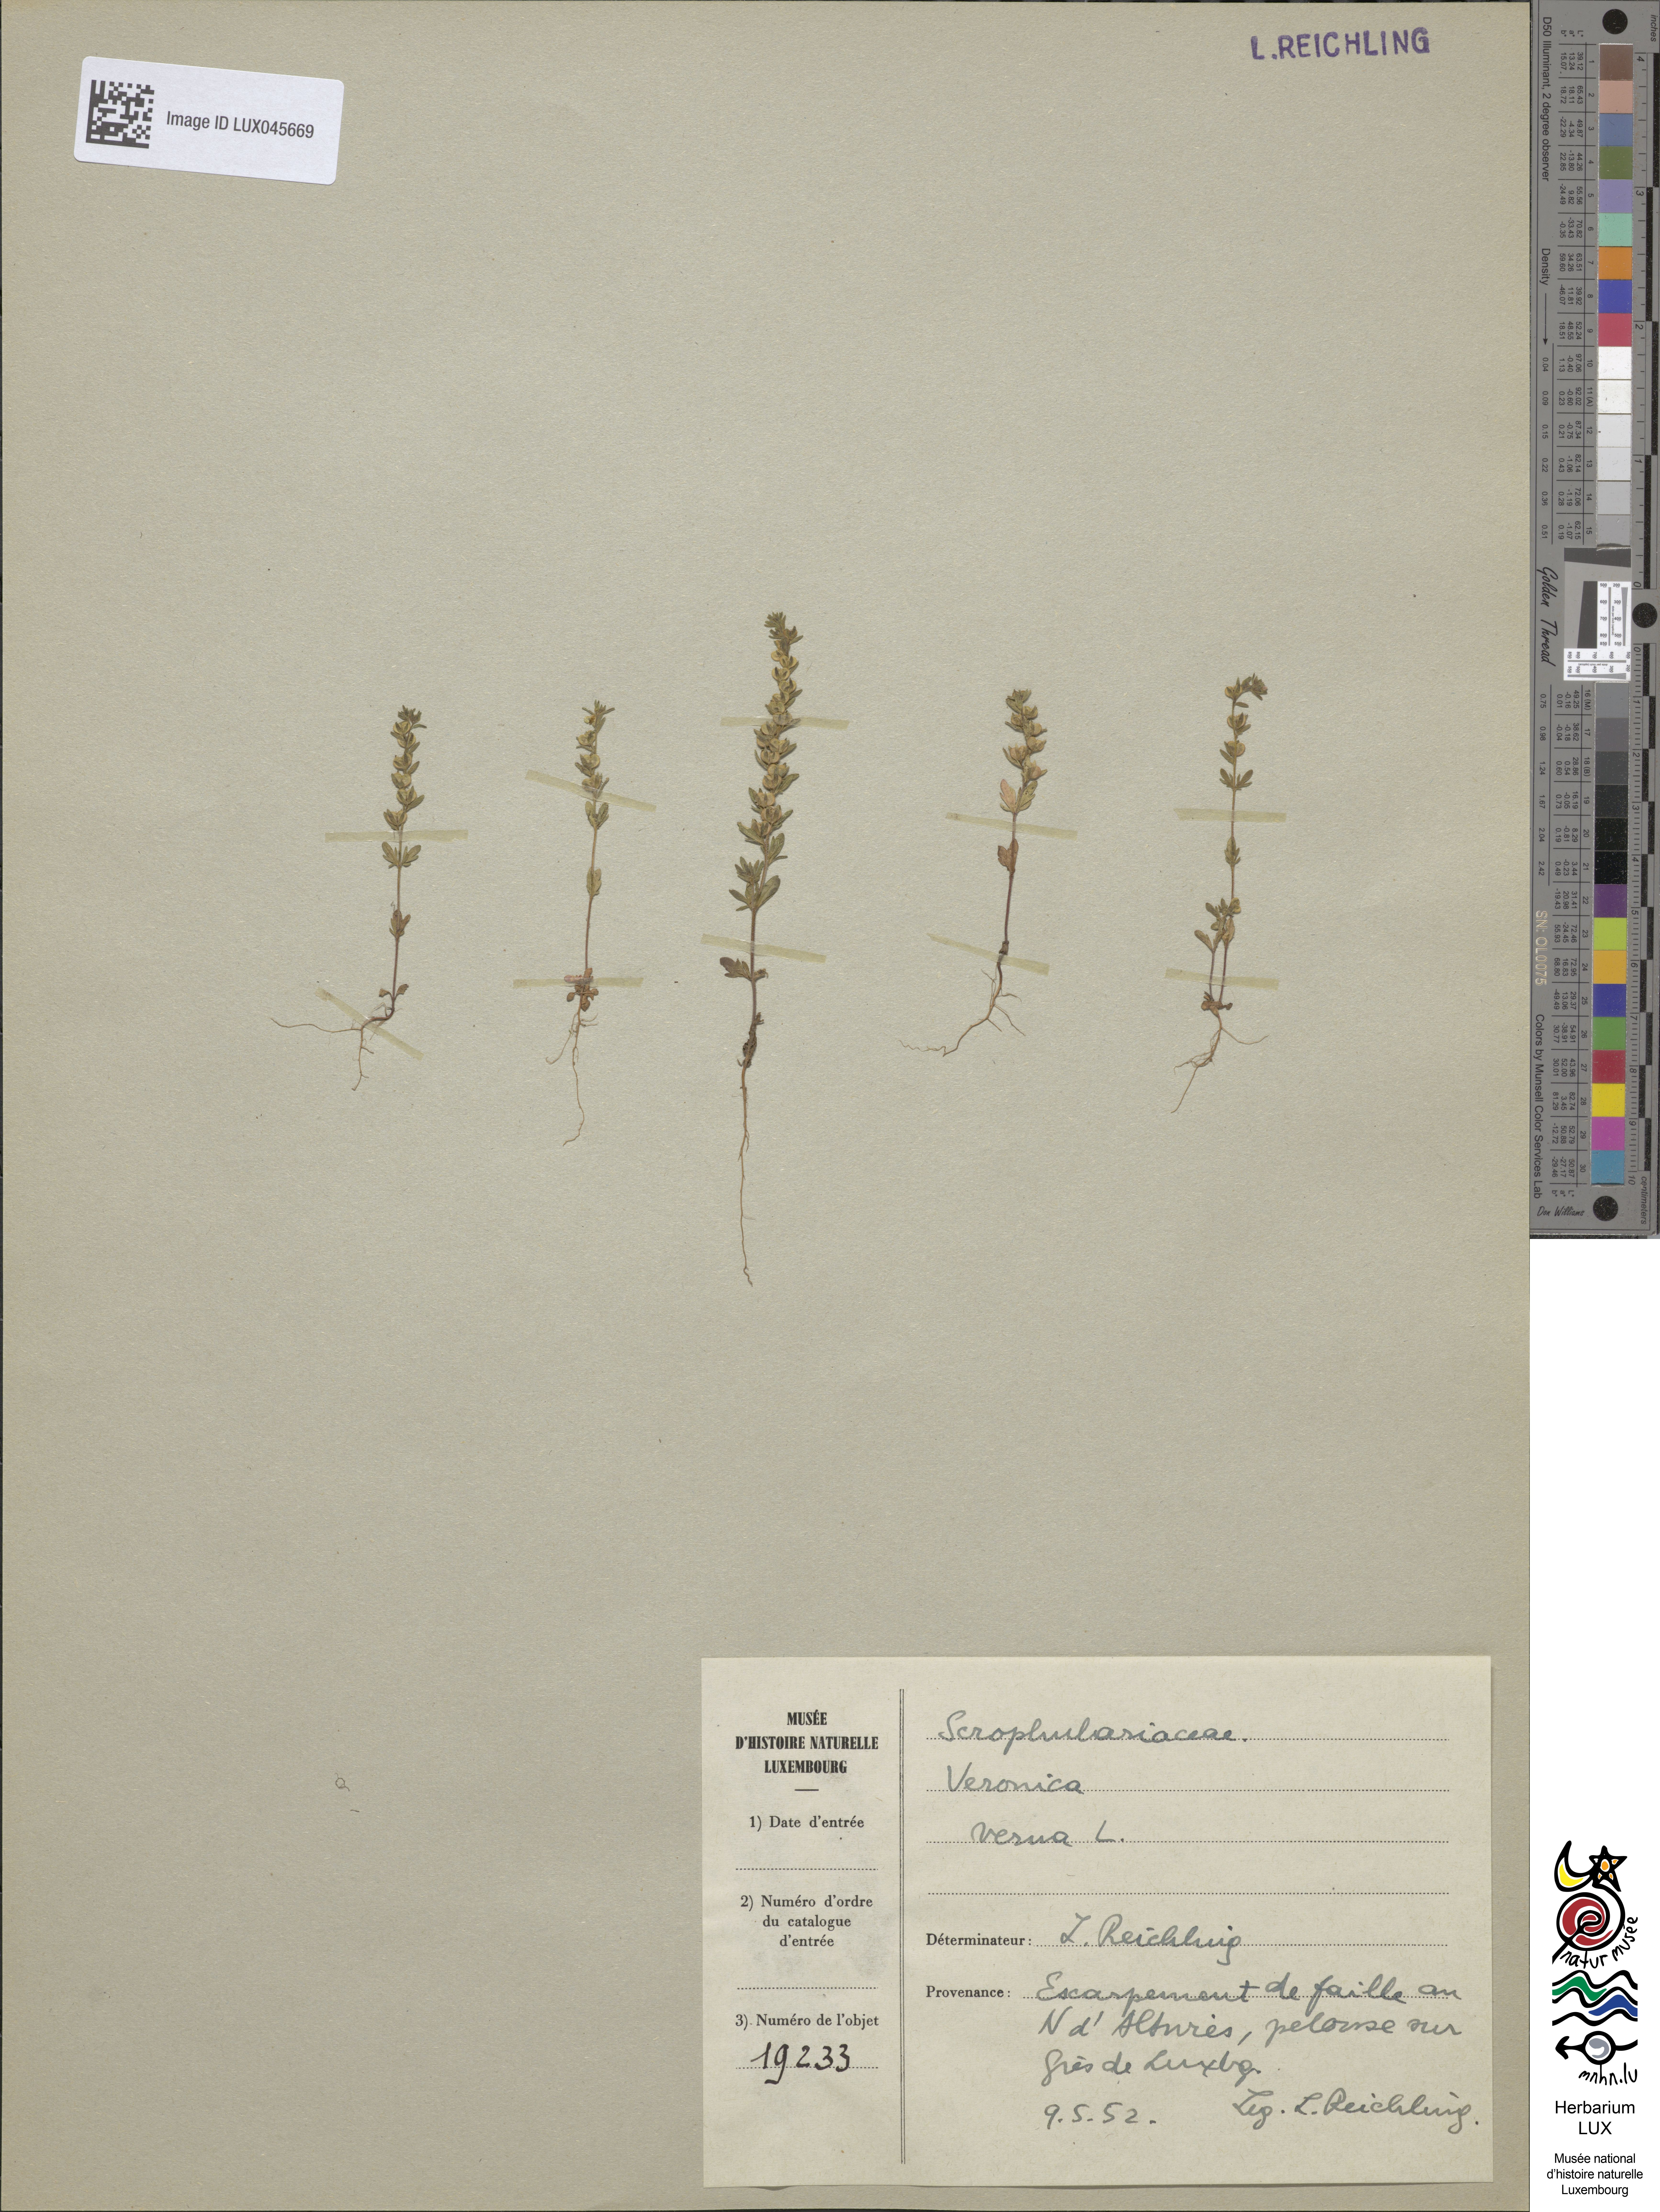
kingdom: Plantae
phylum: Tracheophyta
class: Magnoliopsida
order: Lamiales
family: Plantaginaceae
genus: Veronica
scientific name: Veronica verna
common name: Spring speedwell
